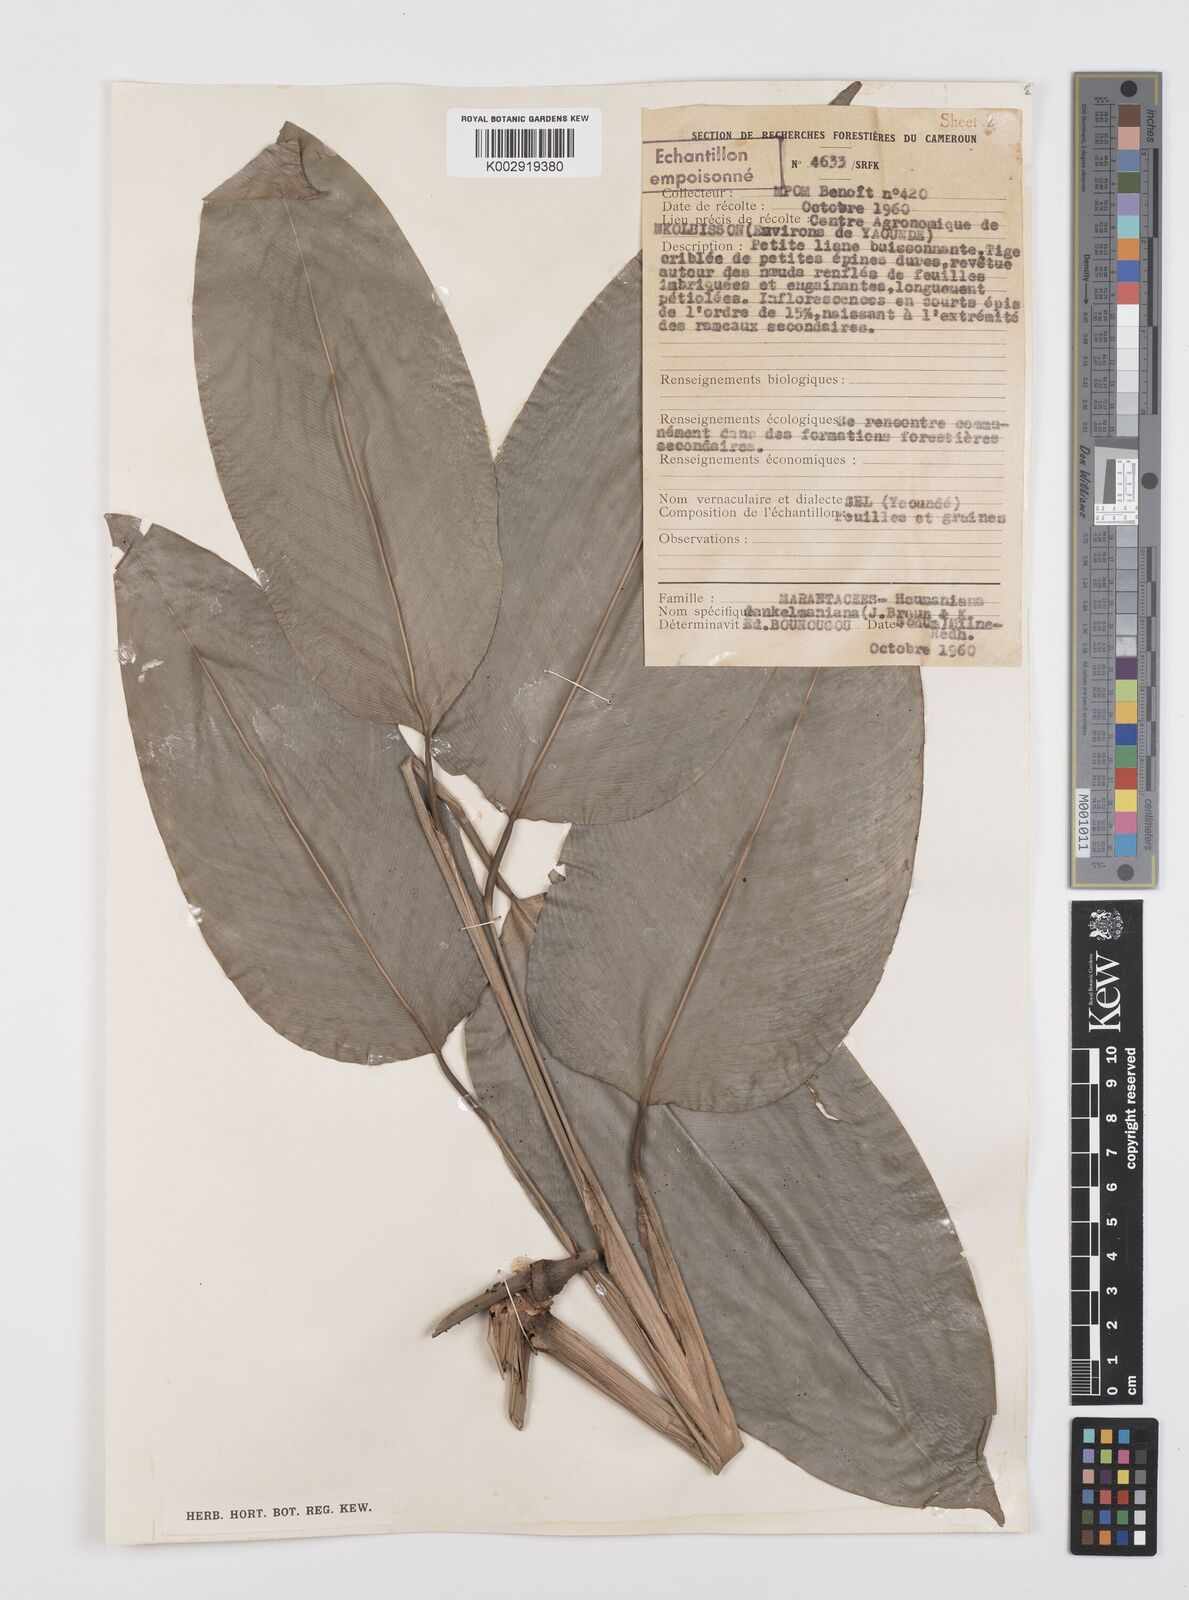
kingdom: Plantae
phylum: Tracheophyta
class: Liliopsida
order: Zingiberales
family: Marantaceae
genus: Haumania
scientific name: Haumania danckelmaniana
